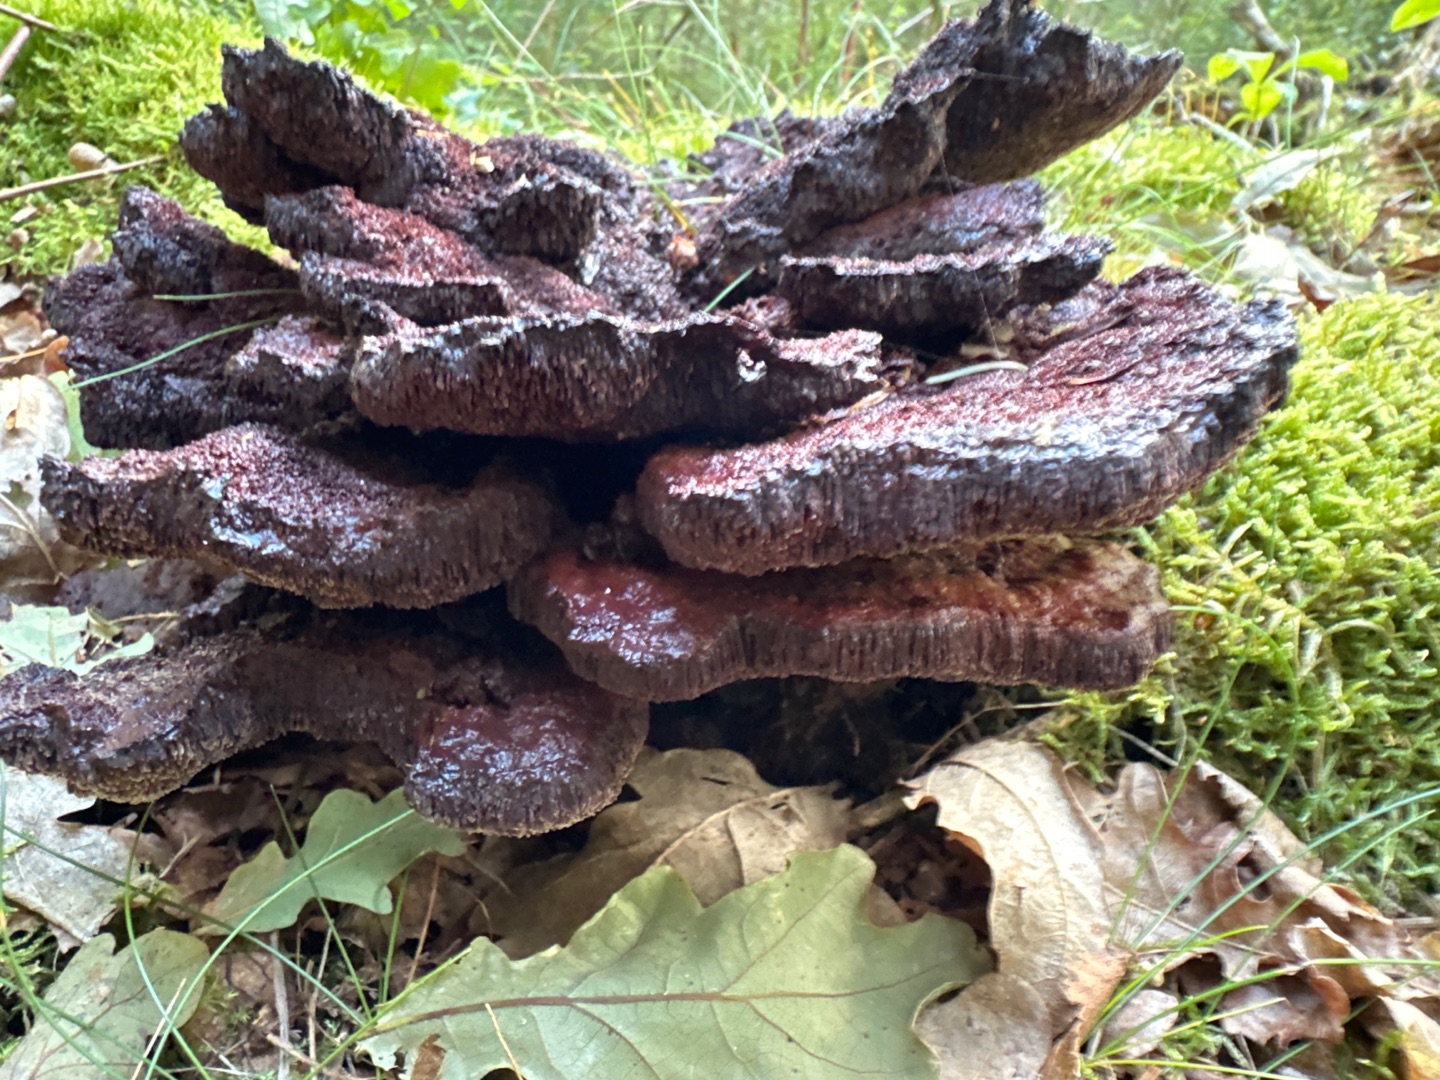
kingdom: Fungi
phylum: Basidiomycota
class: Agaricomycetes
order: Polyporales
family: Laetiporaceae
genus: Phaeolus
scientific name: Phaeolus schweinitzii
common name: Brunporesvamp
